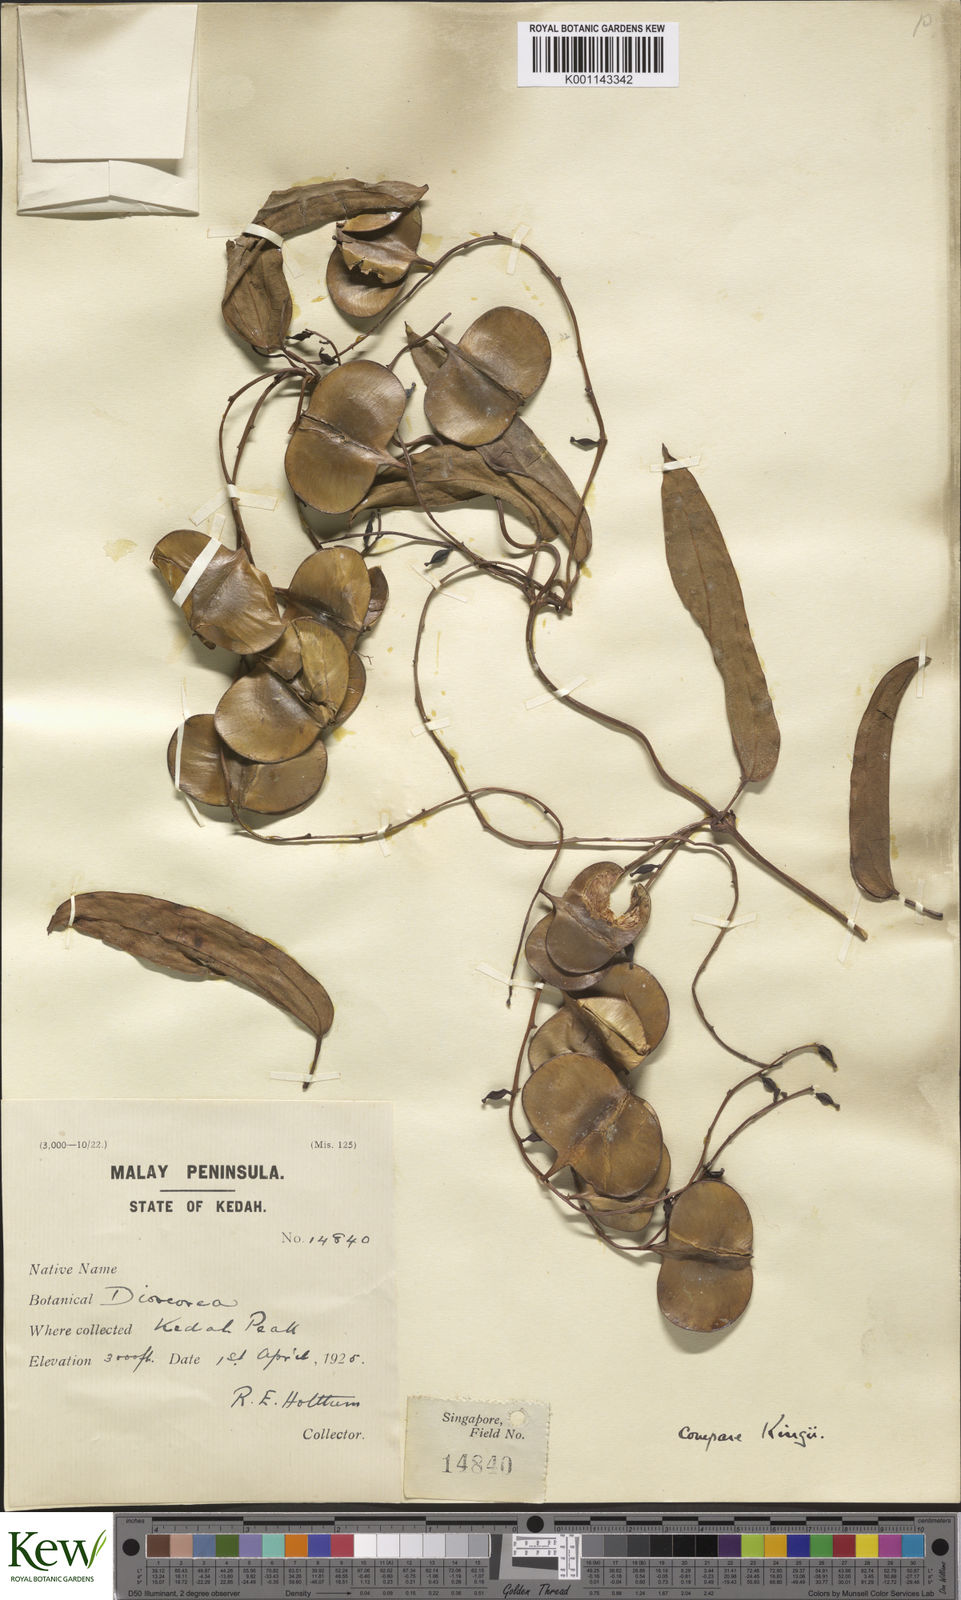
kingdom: Plantae
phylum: Tracheophyta
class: Liliopsida
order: Dioscoreales
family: Dioscoreaceae
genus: Dioscorea
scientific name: Dioscorea kingii
